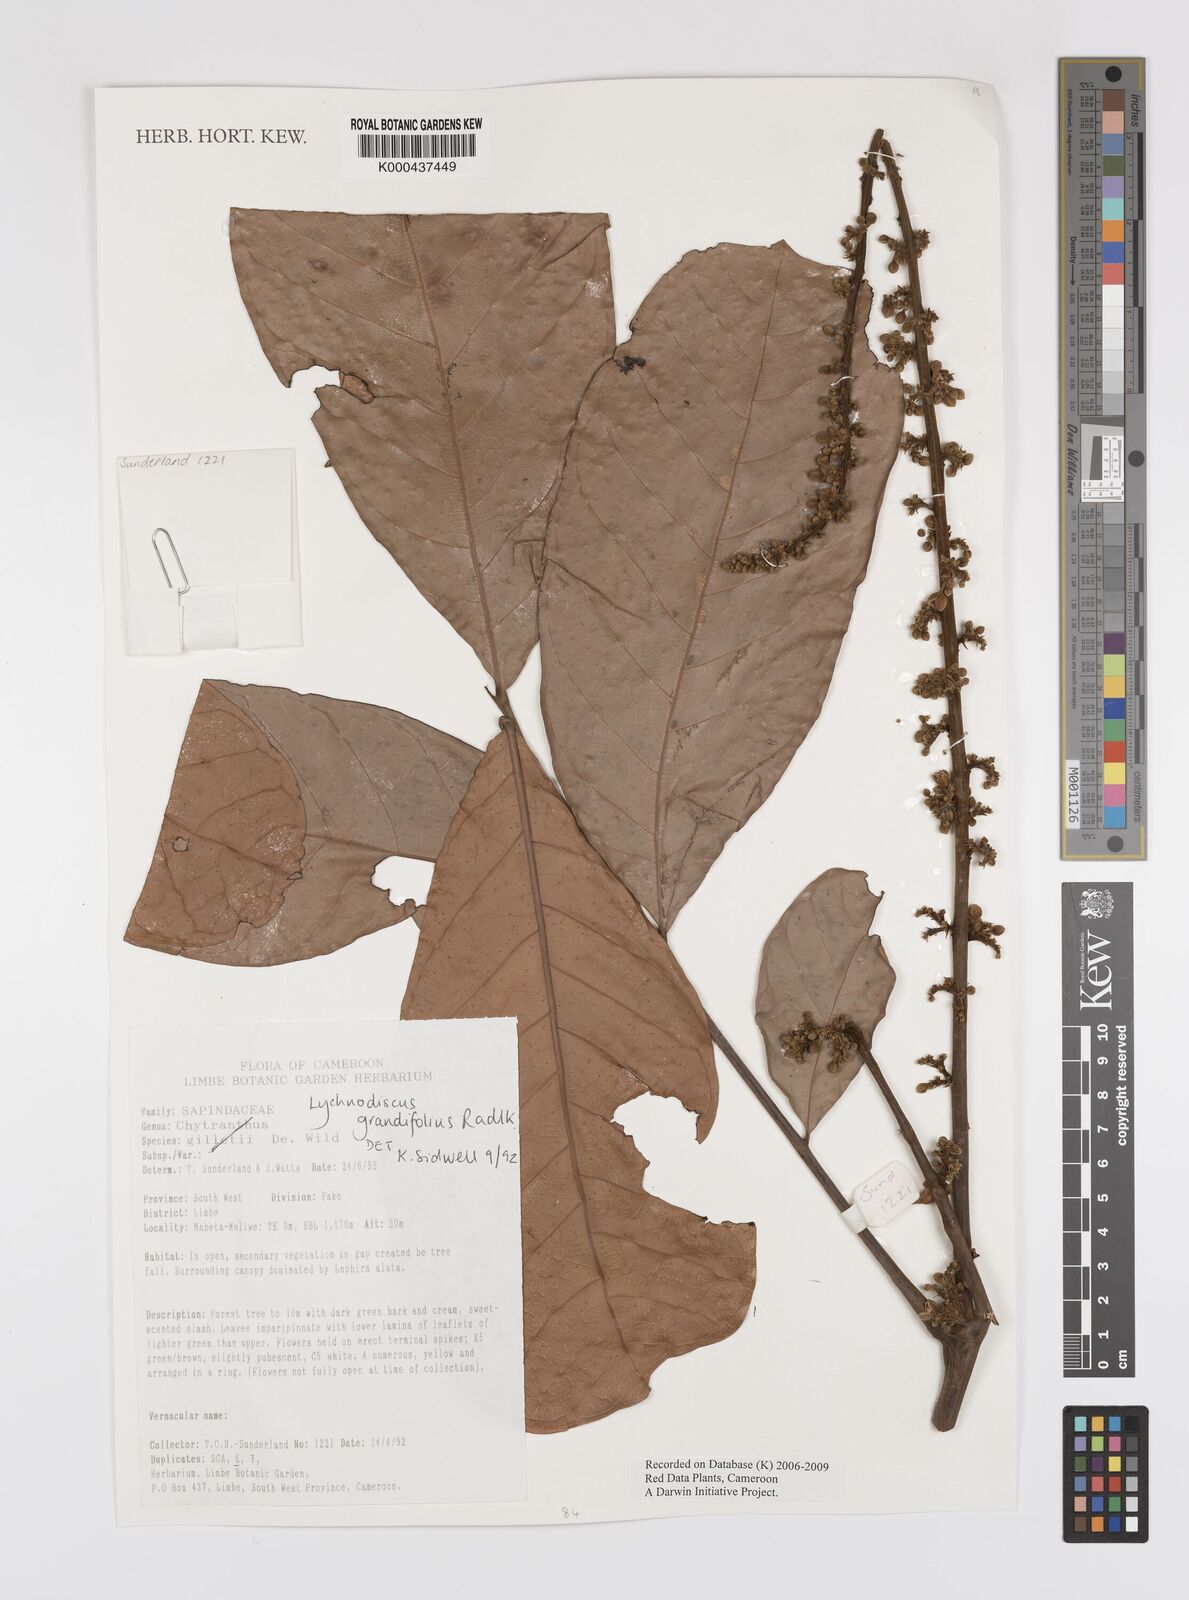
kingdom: Plantae
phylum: Tracheophyta
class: Magnoliopsida
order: Sapindales
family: Sapindaceae
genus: Lychnodiscus
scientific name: Lychnodiscus grandifolius
